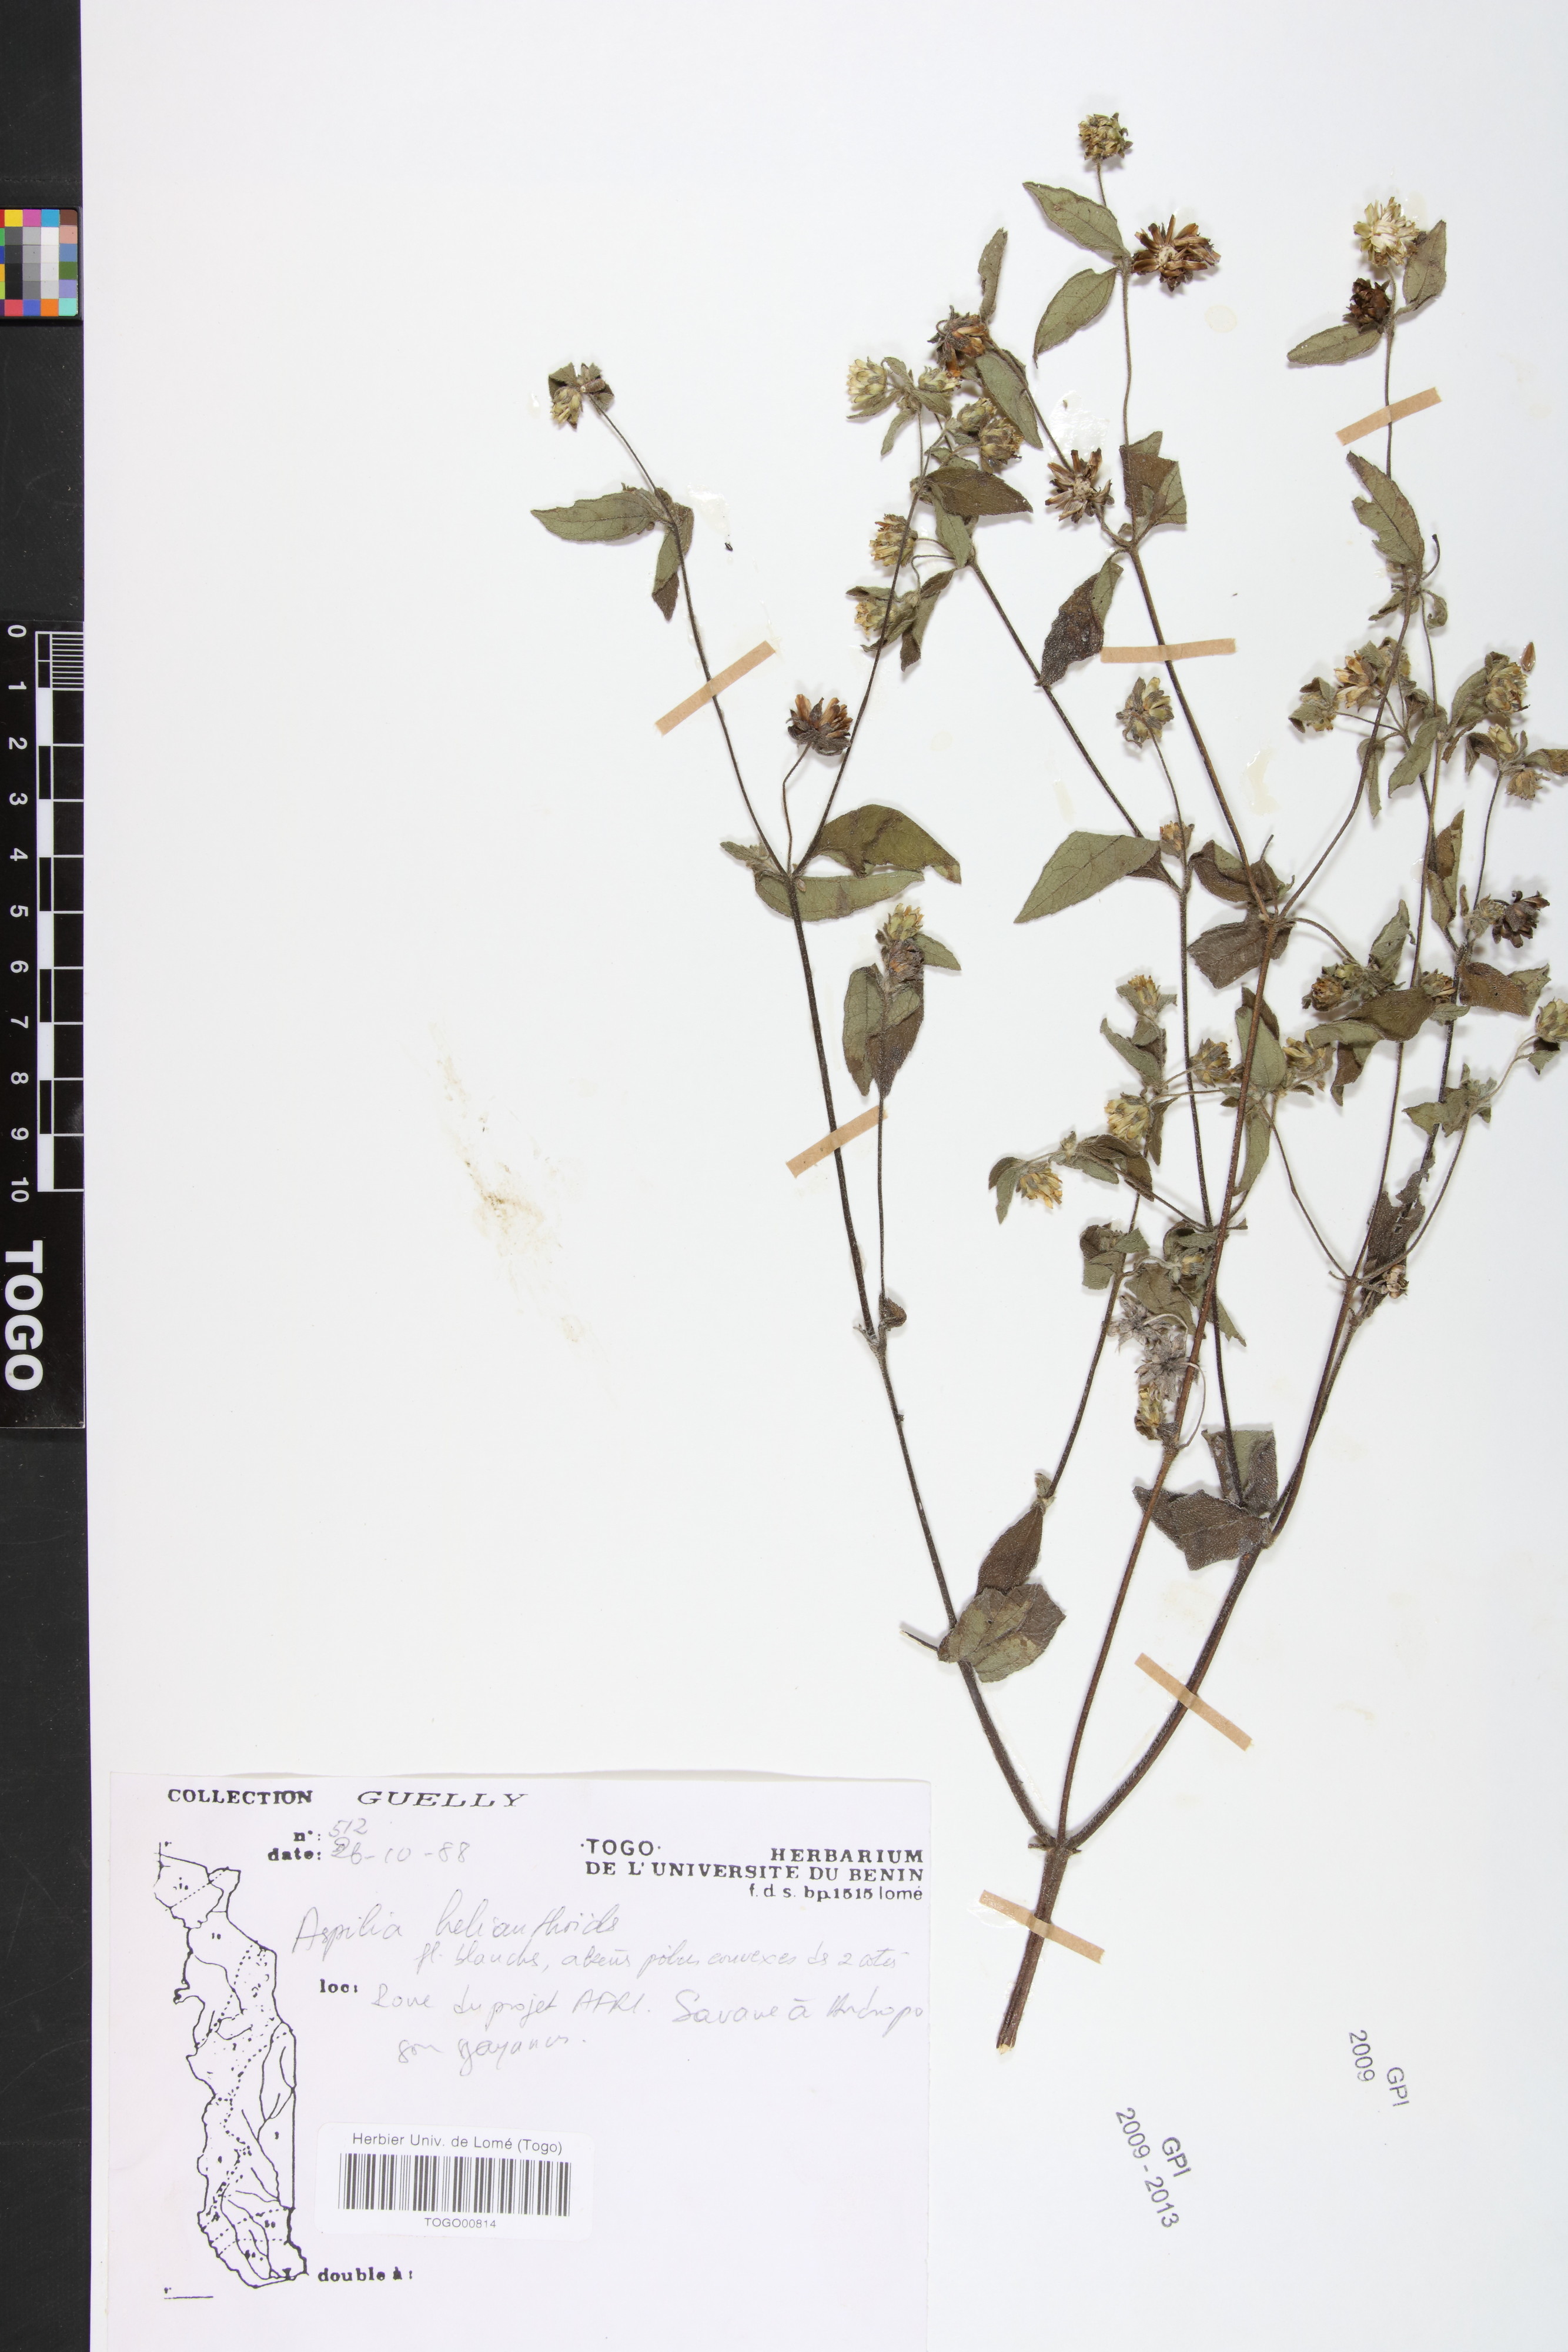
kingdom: Plantae
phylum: Tracheophyta
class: Magnoliopsida
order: Asterales
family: Asteraceae
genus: Aspilia
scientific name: Aspilia helianthoides
